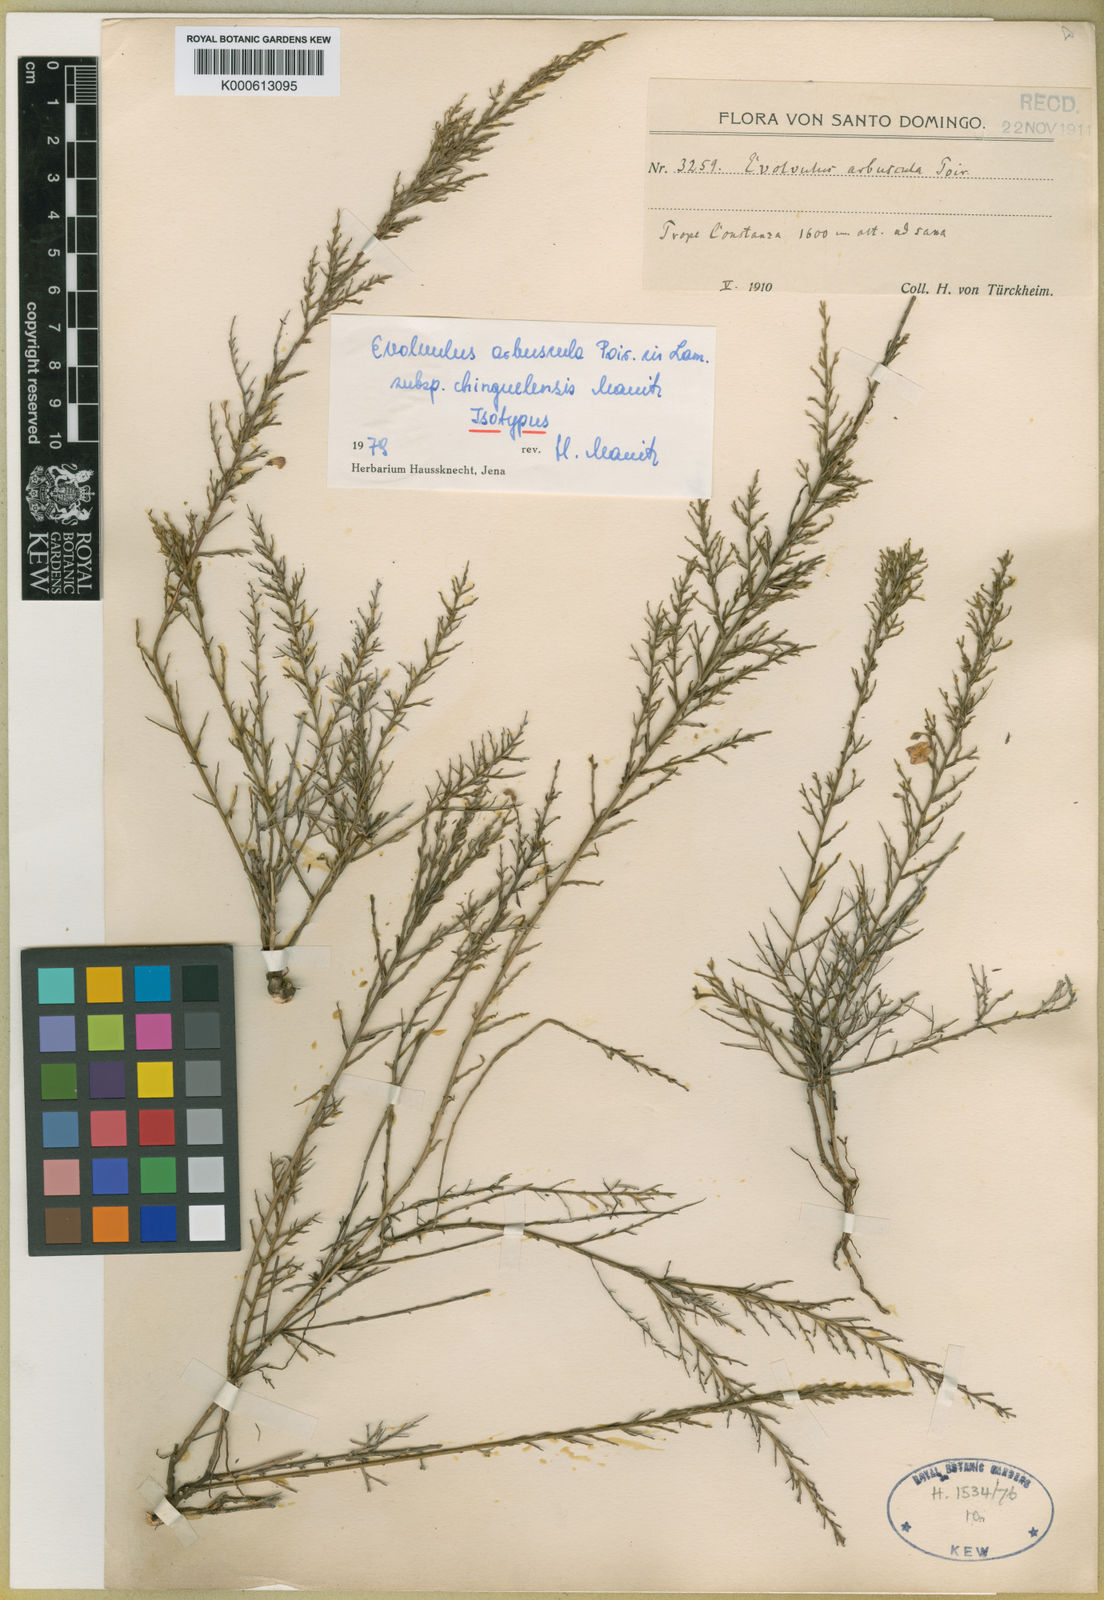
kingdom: Plantae
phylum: Tracheophyta
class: Magnoliopsida
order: Solanales
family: Convolvulaceae
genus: Evolvulus
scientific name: Evolvulus arbuscula
